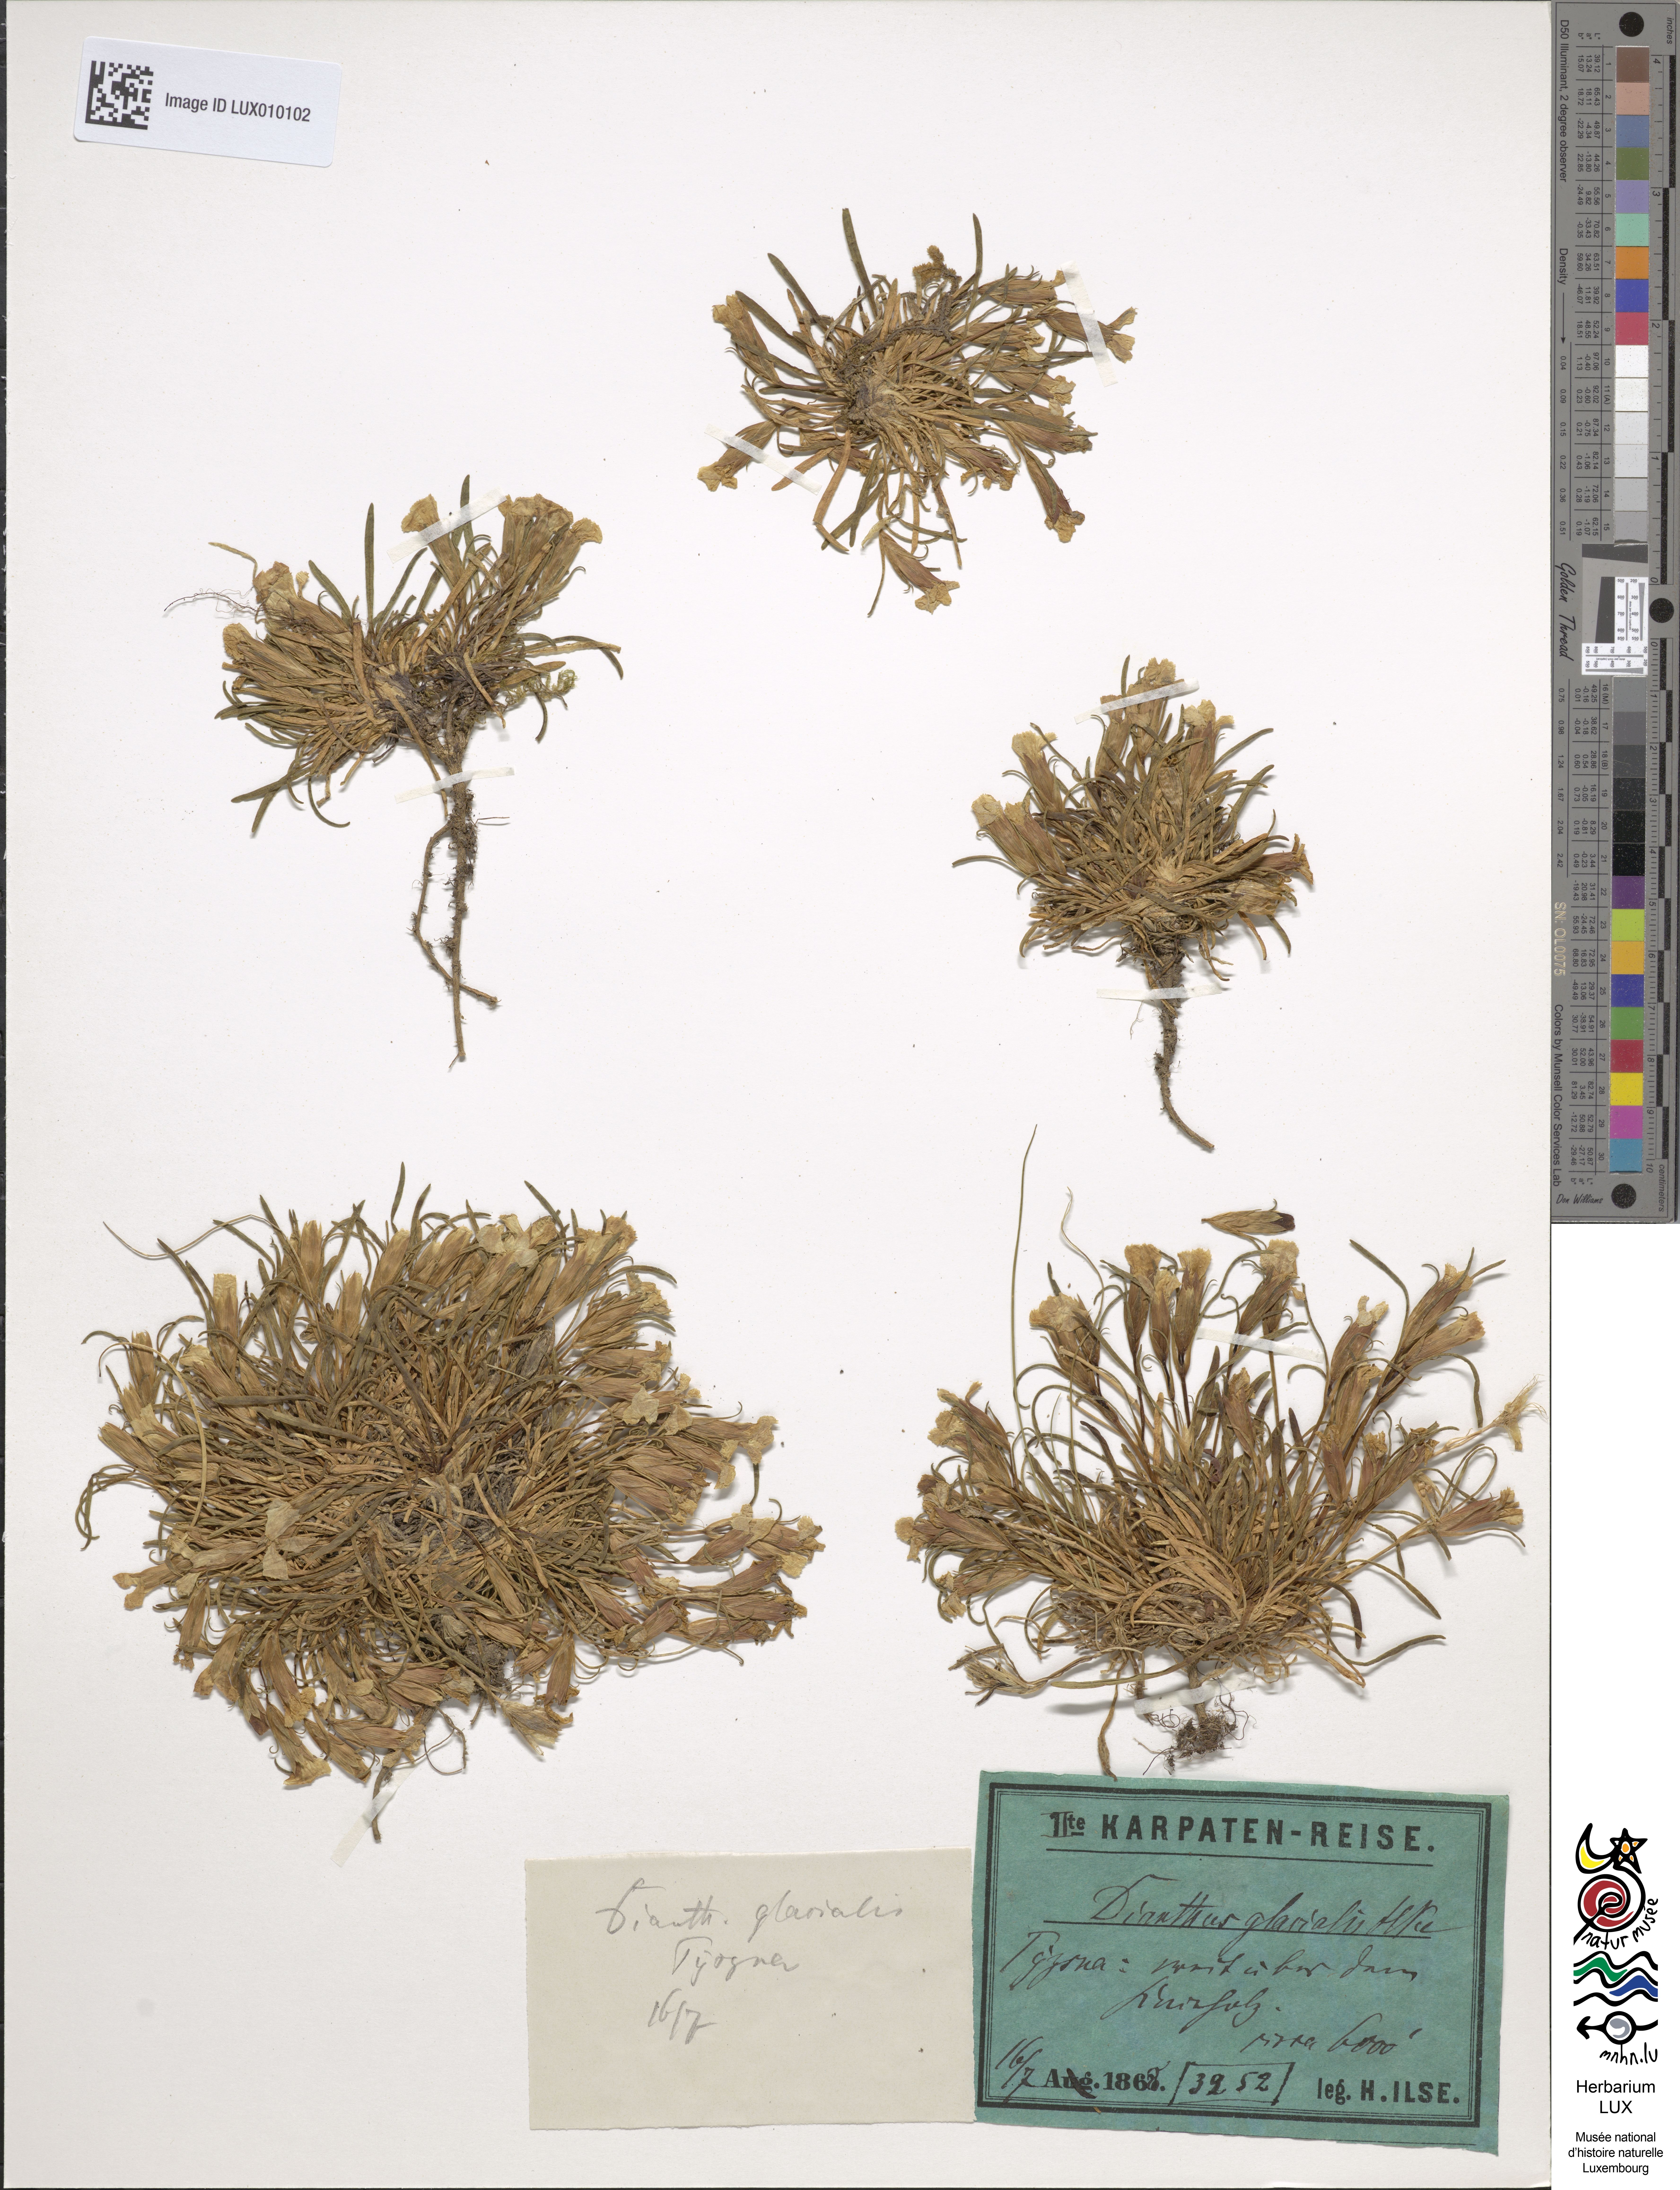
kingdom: Plantae
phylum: Tracheophyta
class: Magnoliopsida
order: Caryophyllales
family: Caryophyllaceae
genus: Dianthus
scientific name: Dianthus glacialis
